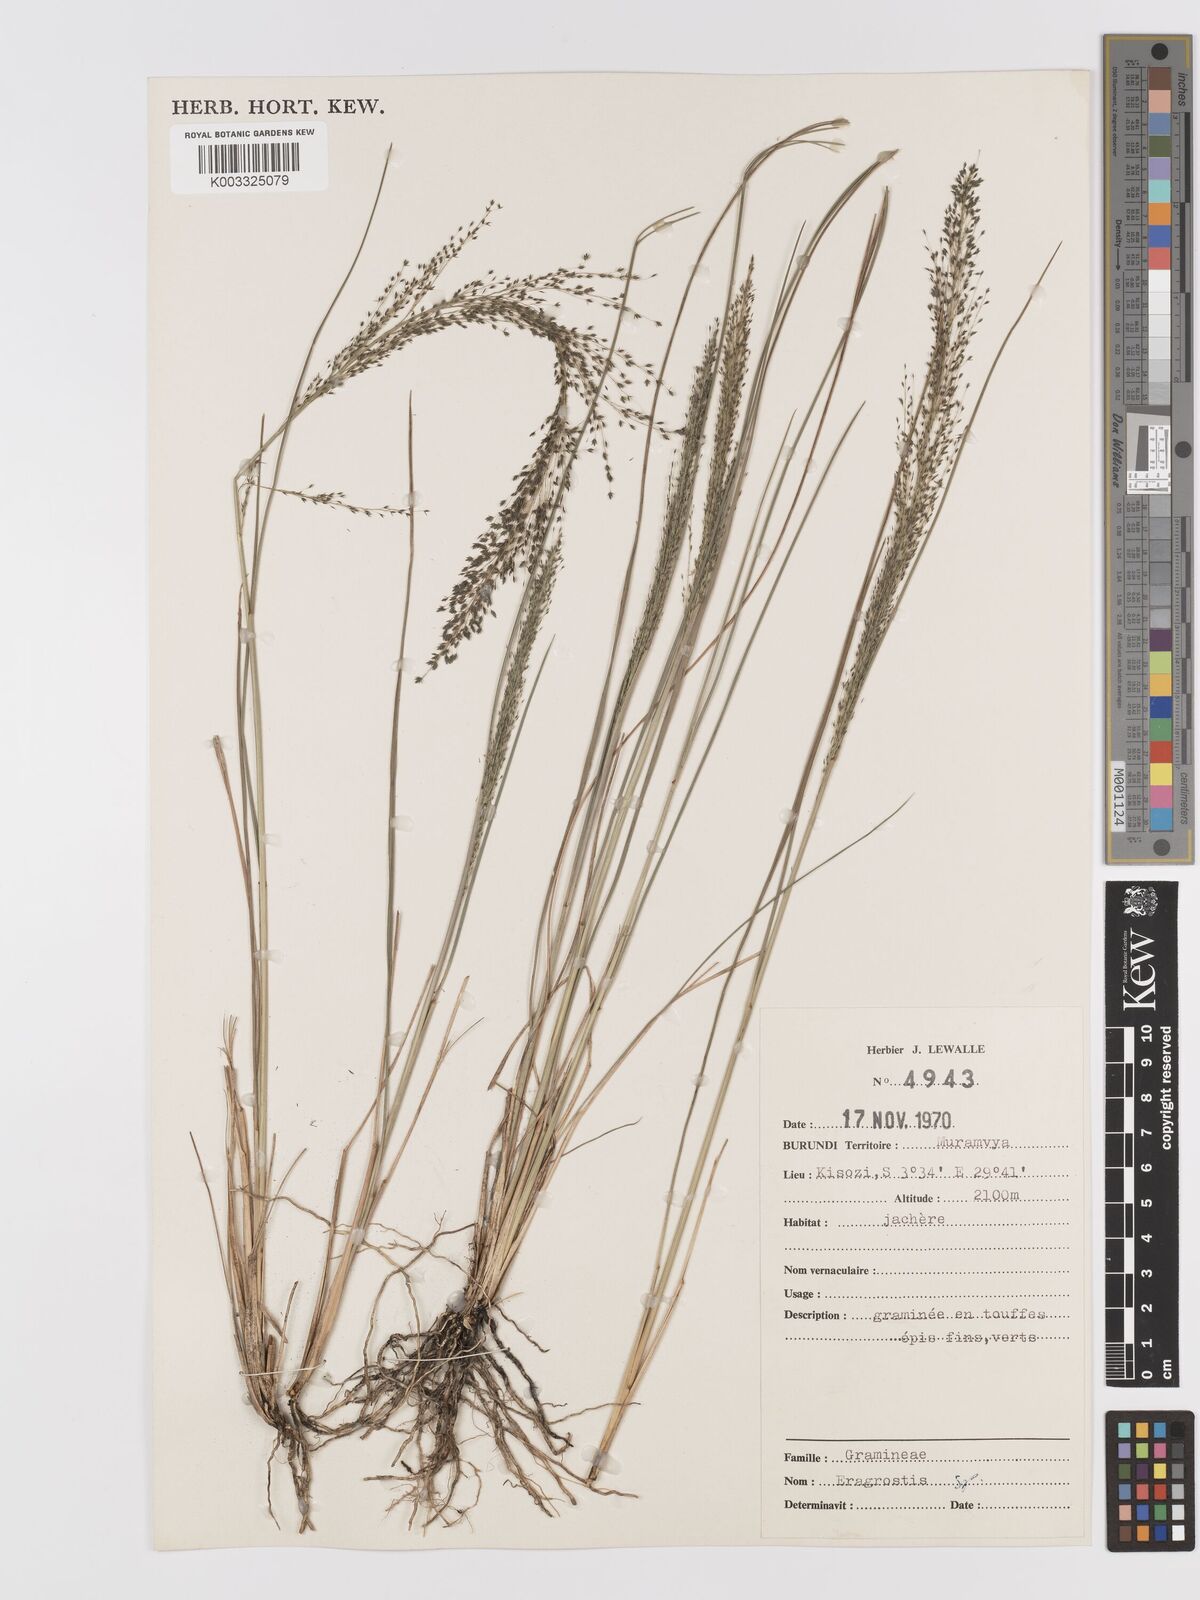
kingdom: Plantae
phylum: Tracheophyta
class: Liliopsida
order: Poales
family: Poaceae
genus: Eragrostis
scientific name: Eragrostis
